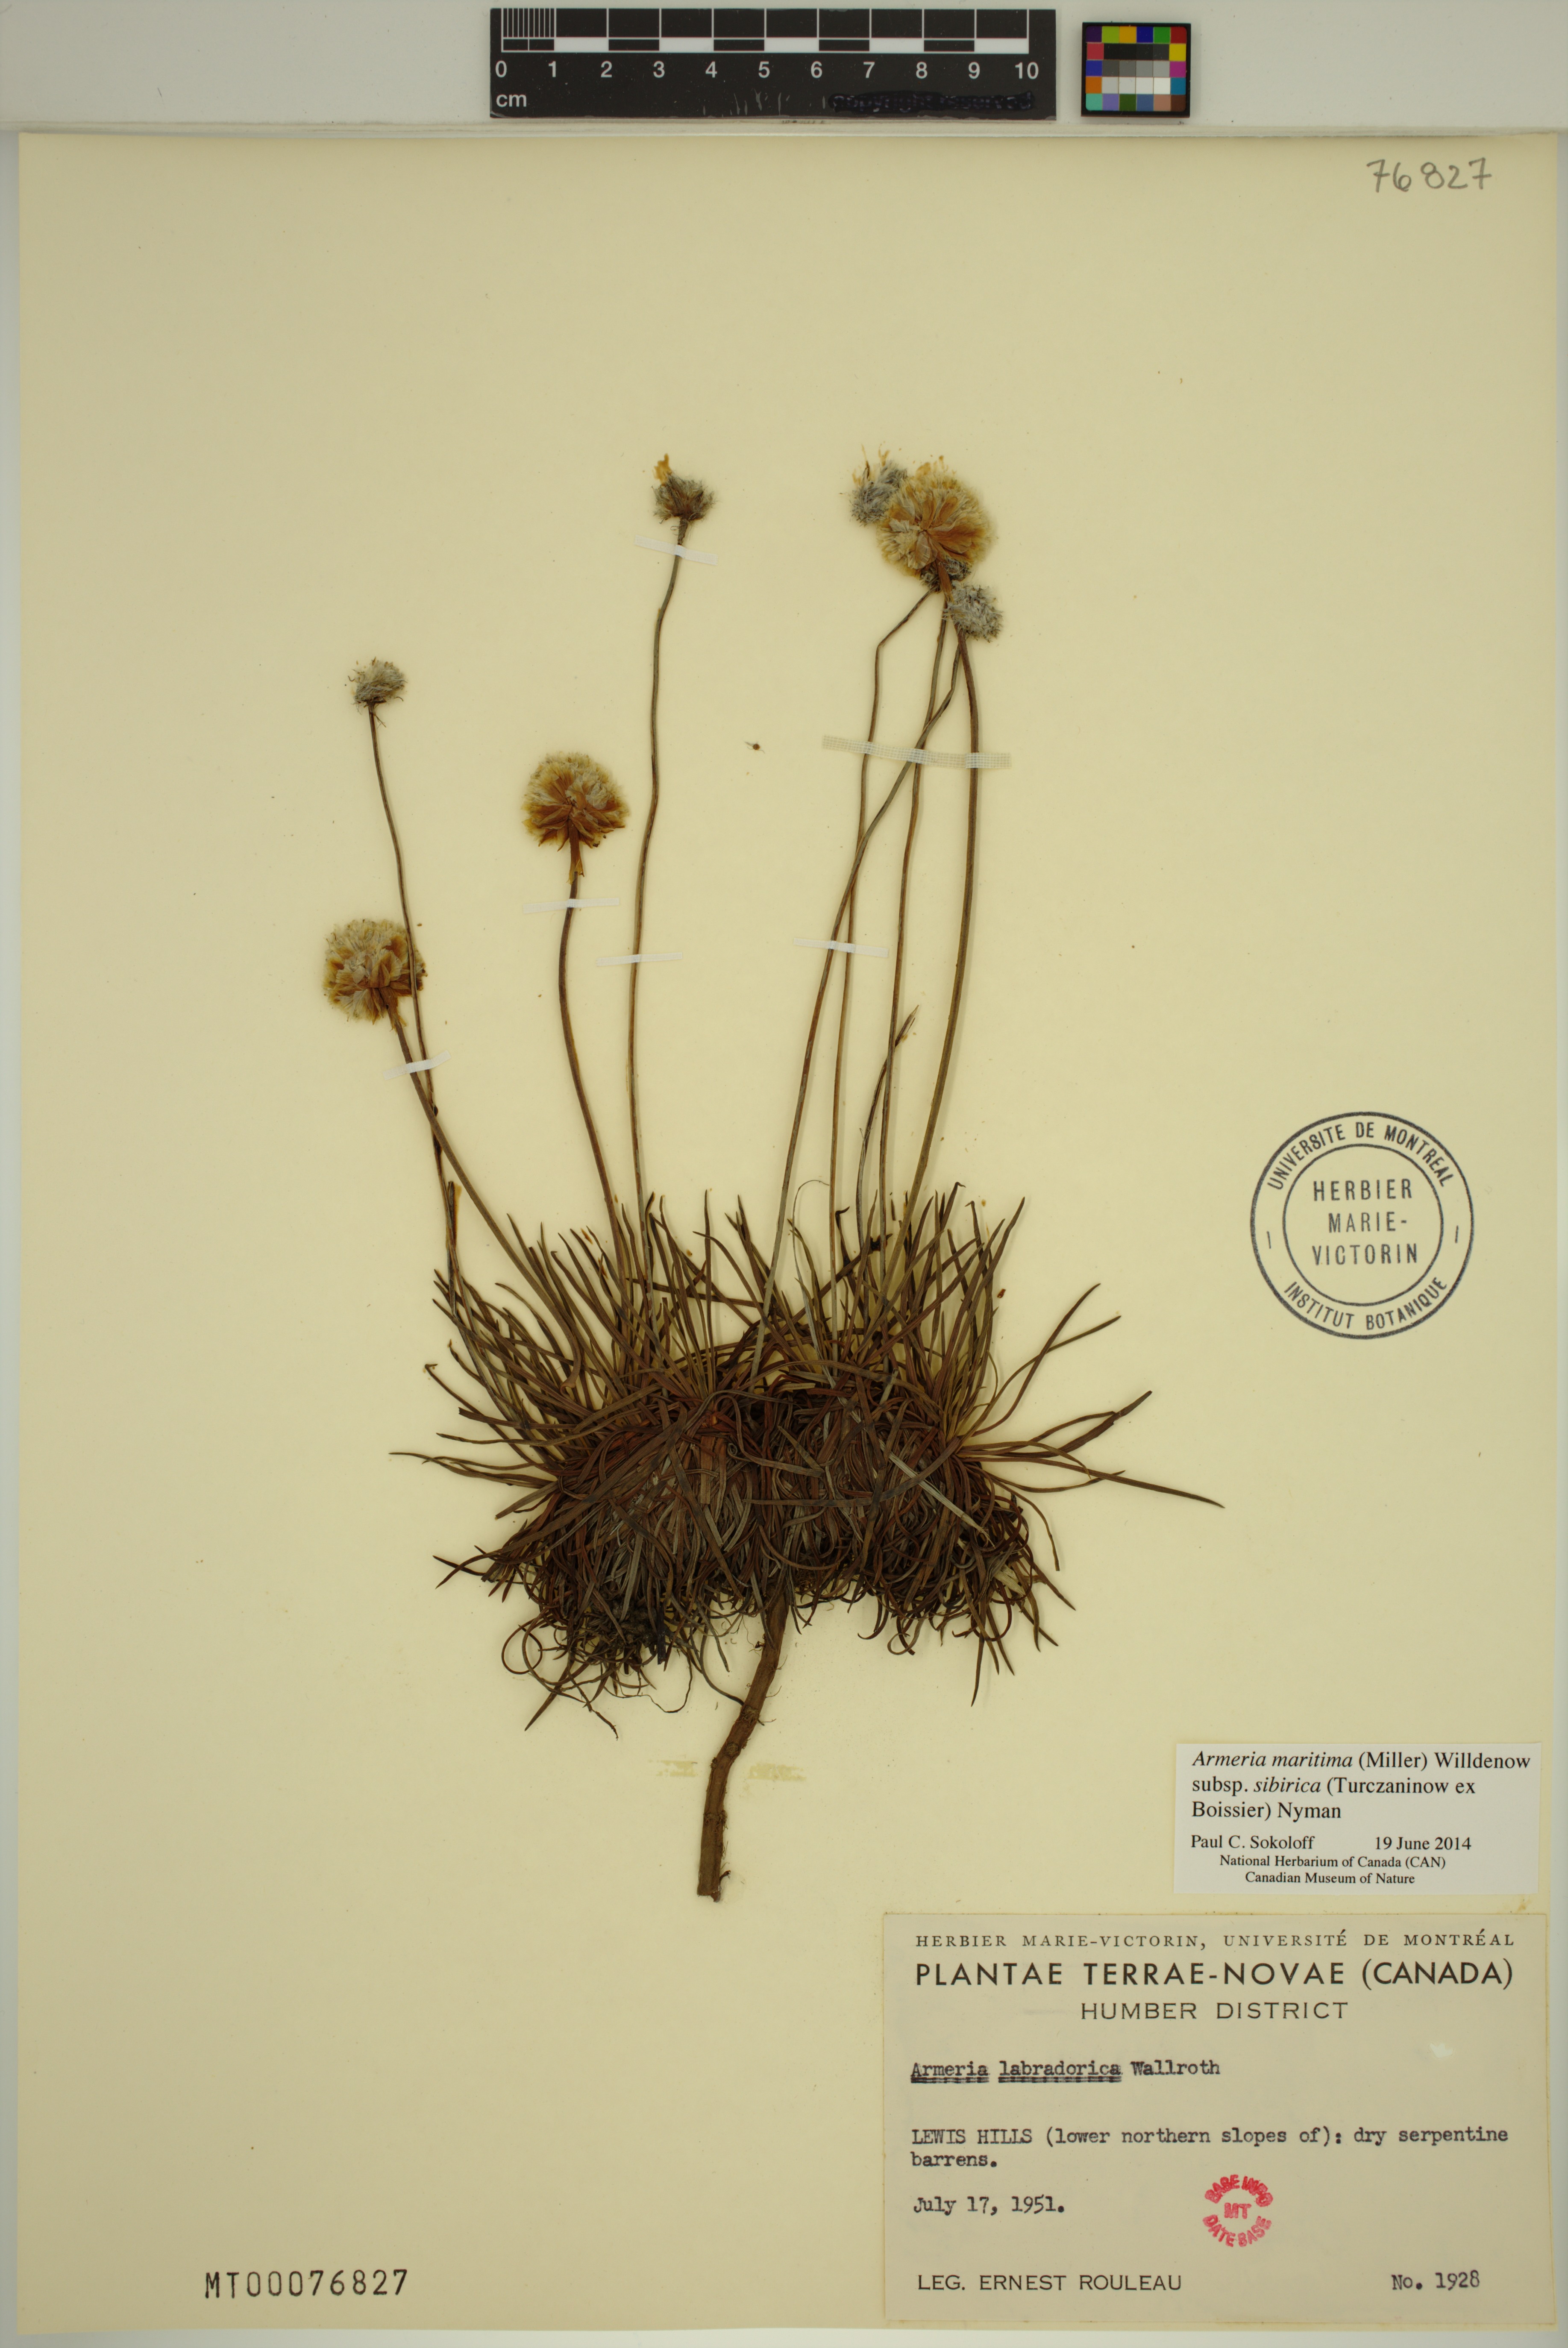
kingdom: Plantae
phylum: Tracheophyta
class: Magnoliopsida
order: Caryophyllales
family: Plumbaginaceae
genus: Armeria
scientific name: Armeria maritima
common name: Thrift
